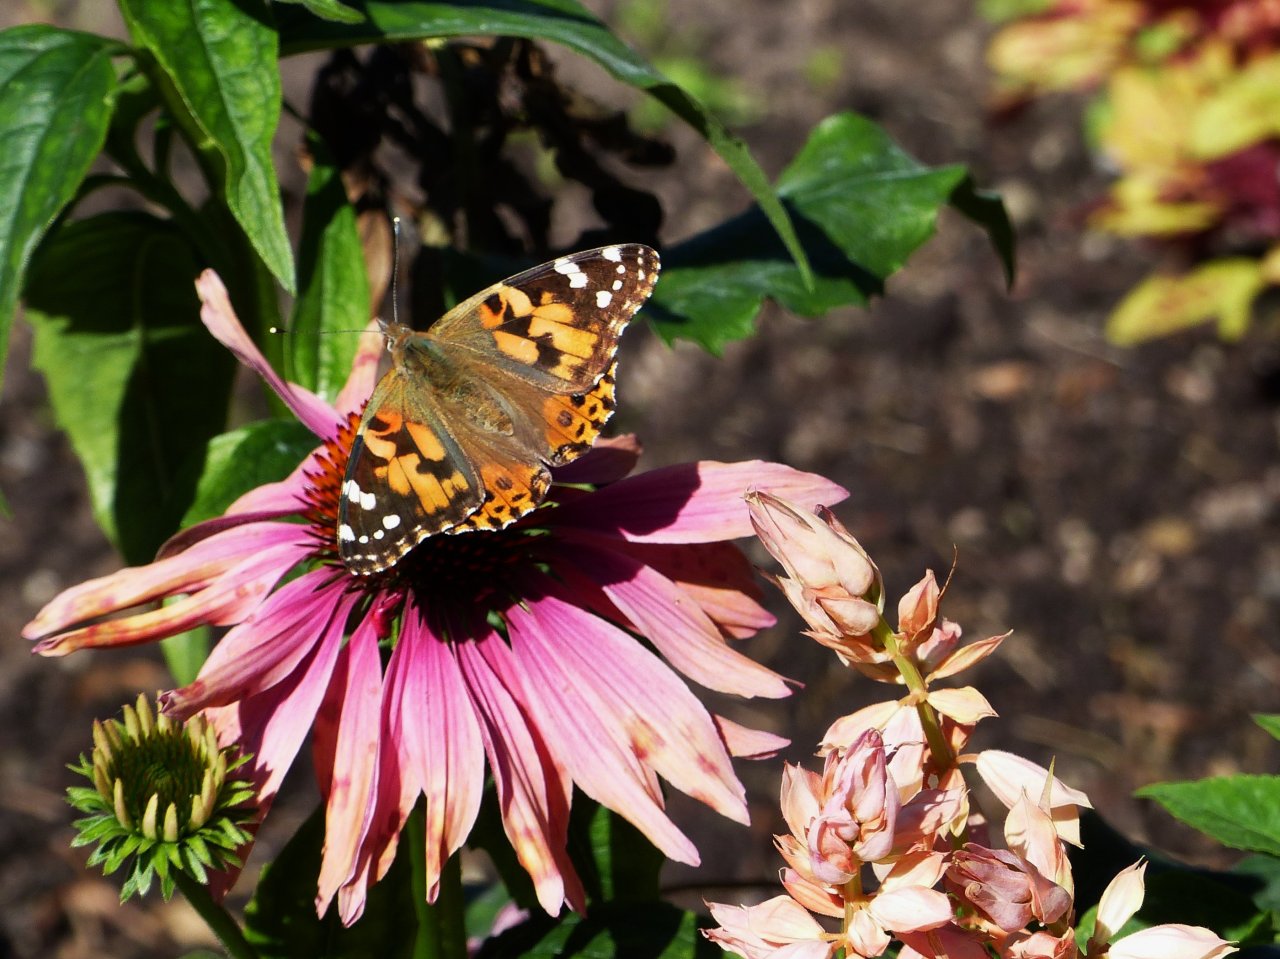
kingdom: Animalia
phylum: Arthropoda
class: Insecta
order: Lepidoptera
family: Nymphalidae
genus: Vanessa
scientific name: Vanessa cardui
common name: Painted Lady
